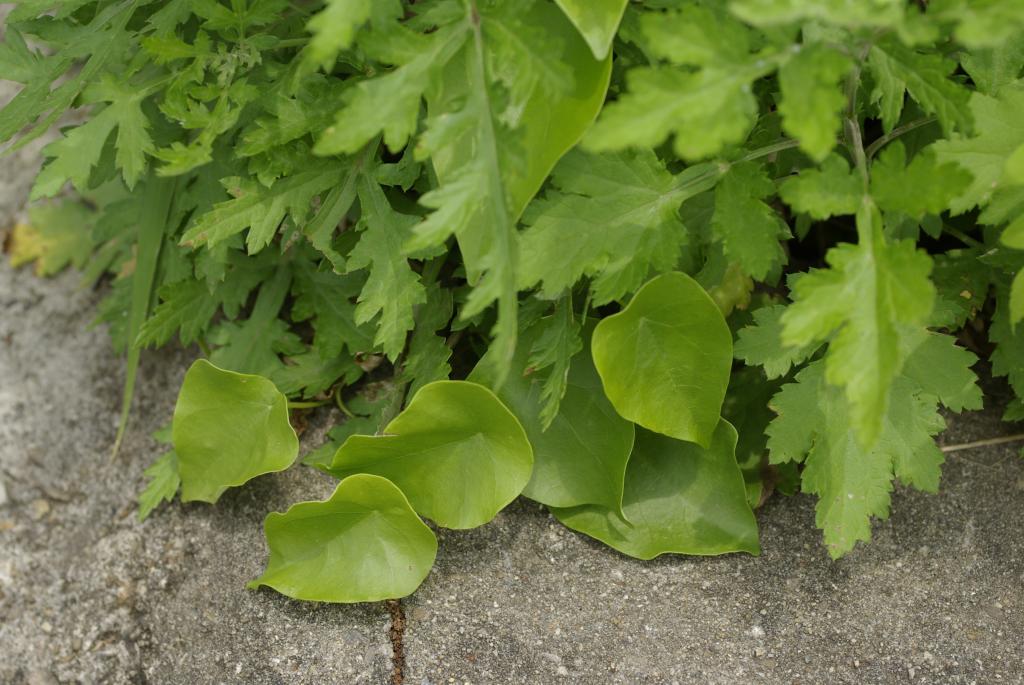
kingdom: Plantae
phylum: Tracheophyta
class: Magnoliopsida
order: Ranunculales
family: Menispermaceae
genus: Stephania
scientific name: Stephania japonica
